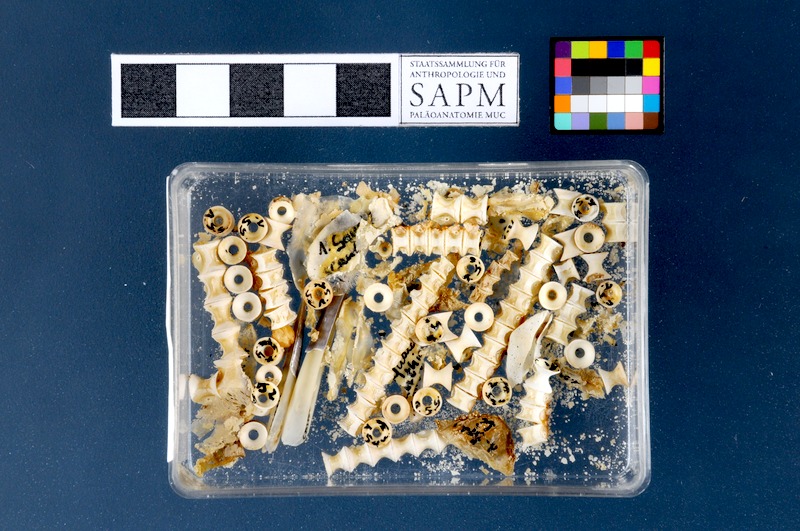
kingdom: Animalia
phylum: Chordata
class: Elasmobranchii
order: Squaliformes
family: Squalidae
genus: Squalus
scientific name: Squalus acanthias
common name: Spurdog
